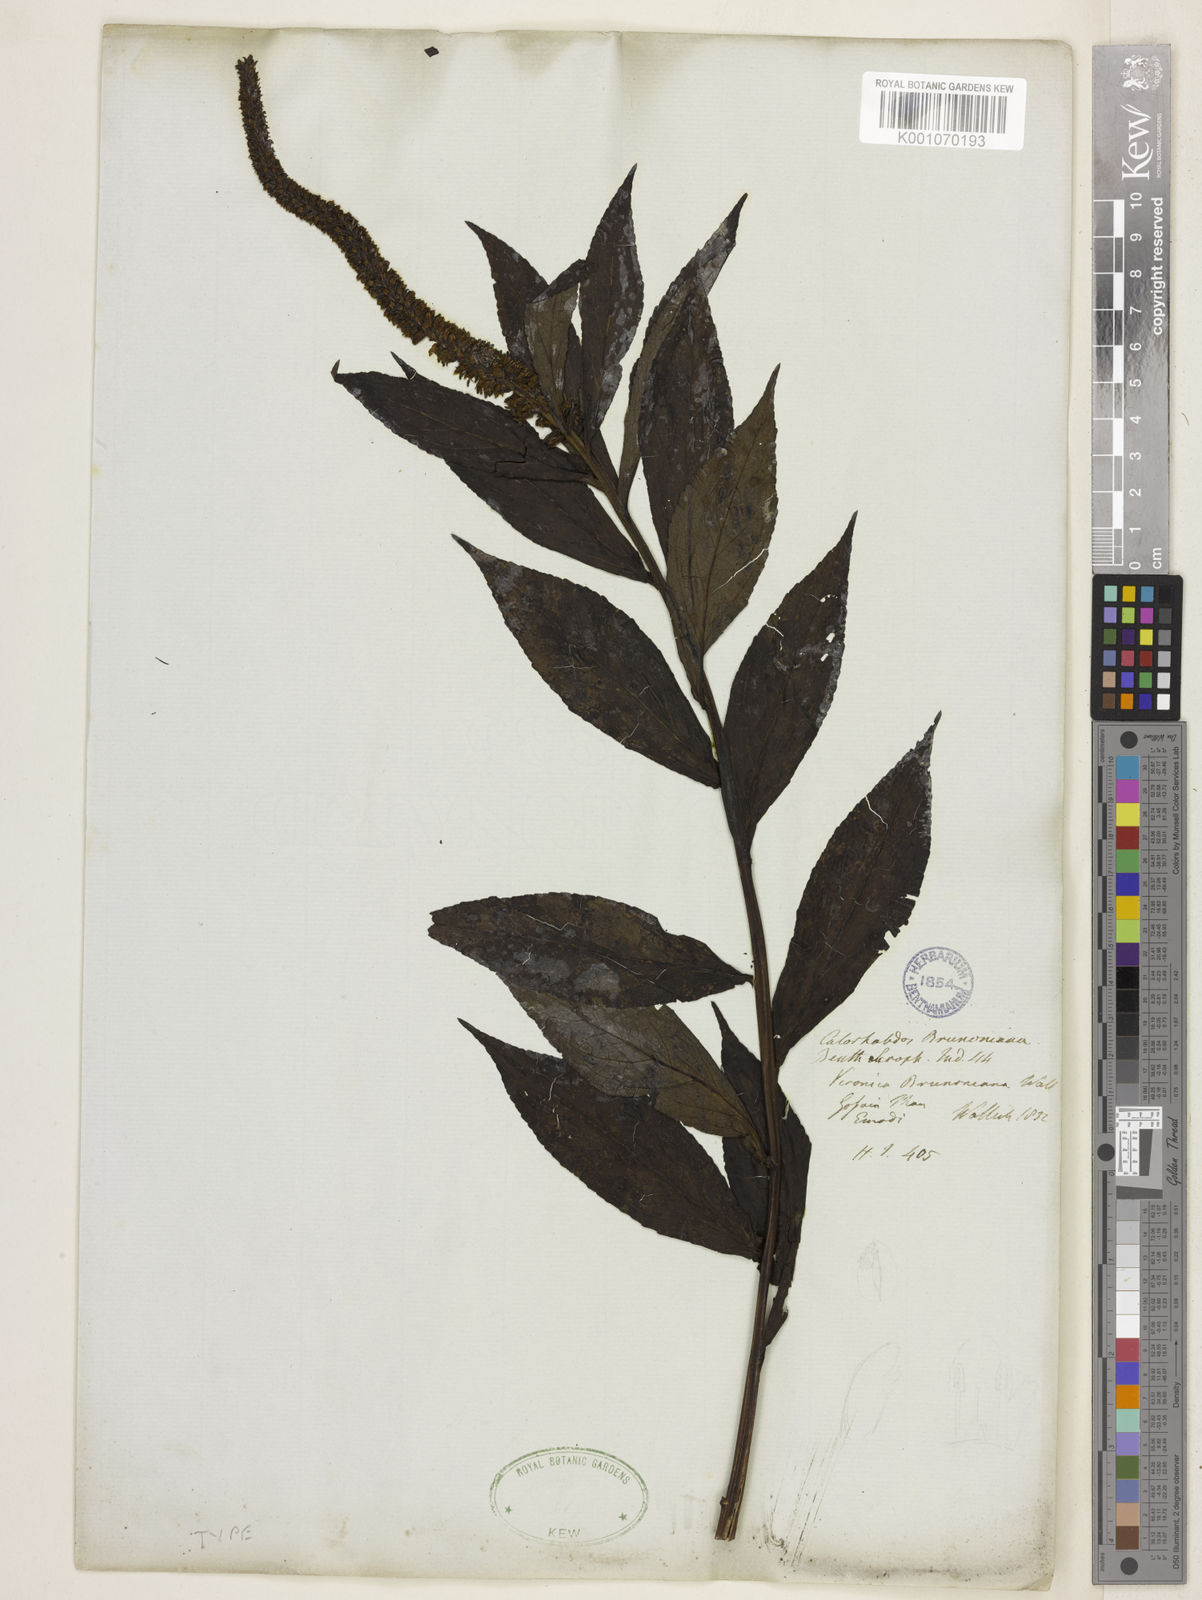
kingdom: Plantae
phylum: Tracheophyta
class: Magnoliopsida
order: Lamiales
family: Plantaginaceae
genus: Veronicastrum
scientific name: Veronicastrum brunonianum
